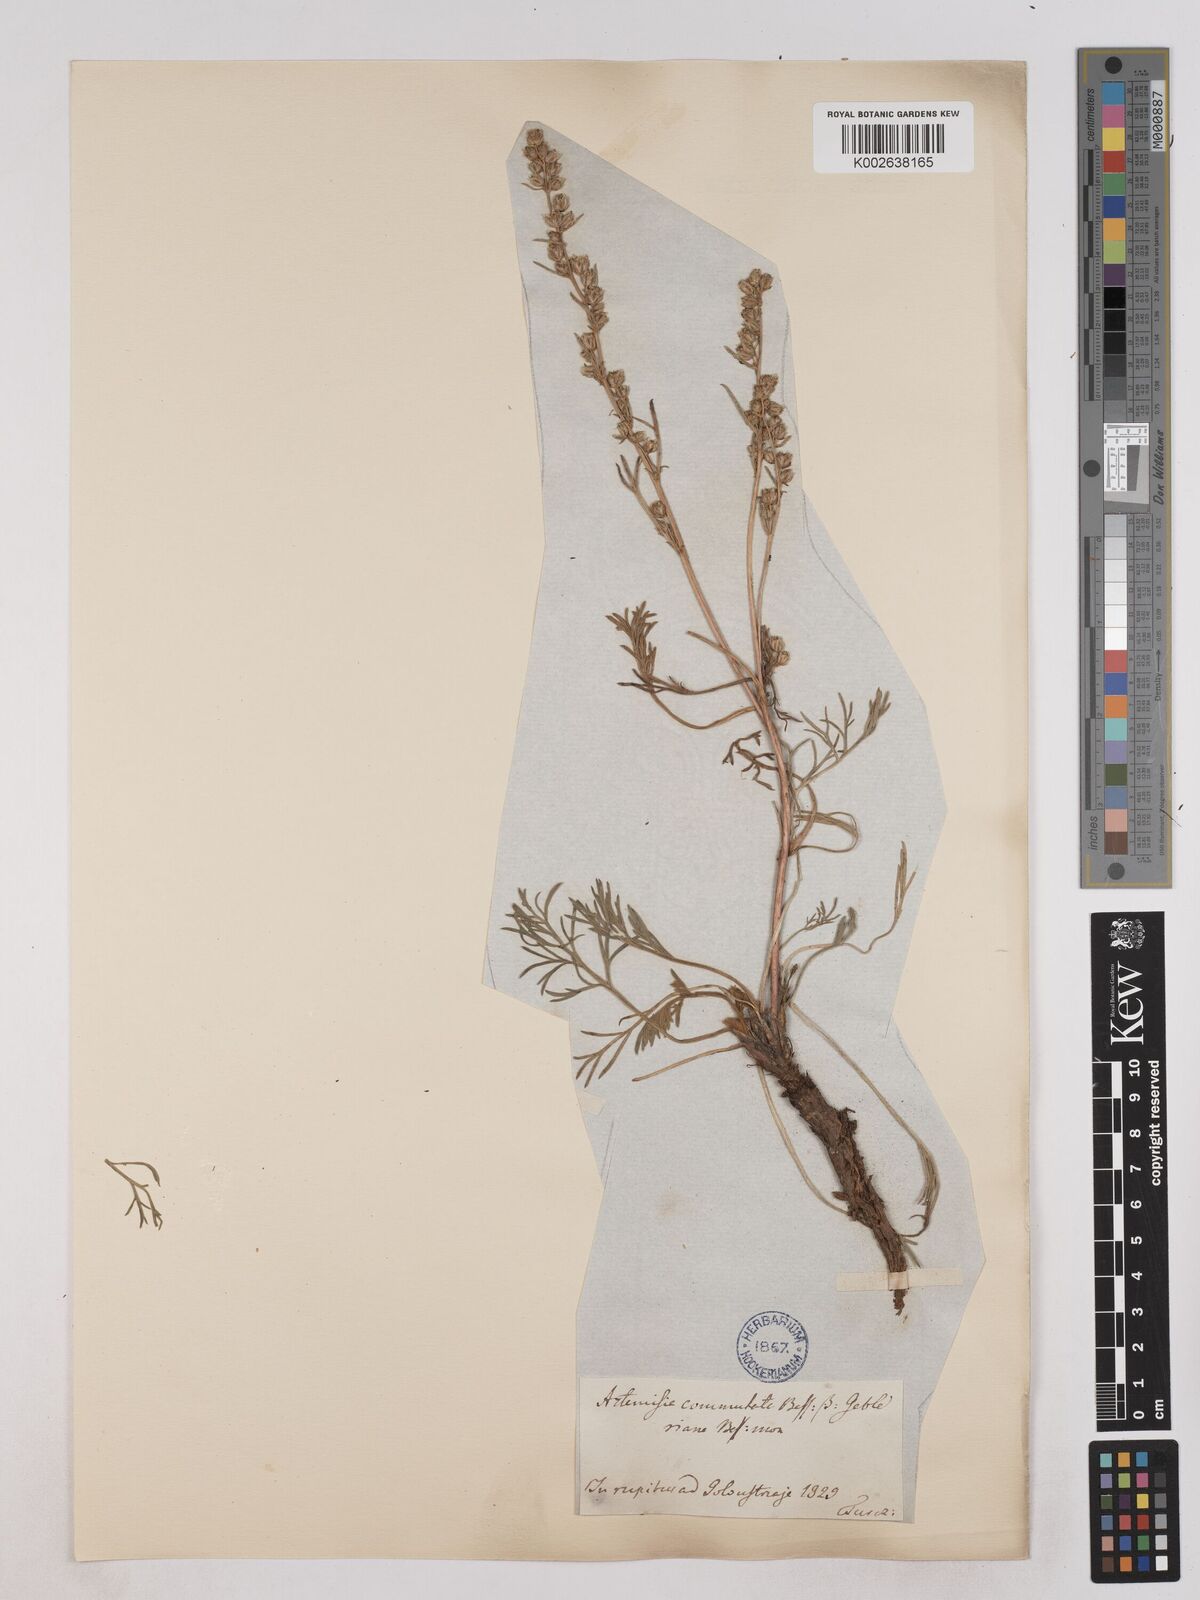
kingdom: Plantae
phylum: Tracheophyta
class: Magnoliopsida
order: Asterales
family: Asteraceae
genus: Artemisia
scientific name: Artemisia pubescens
